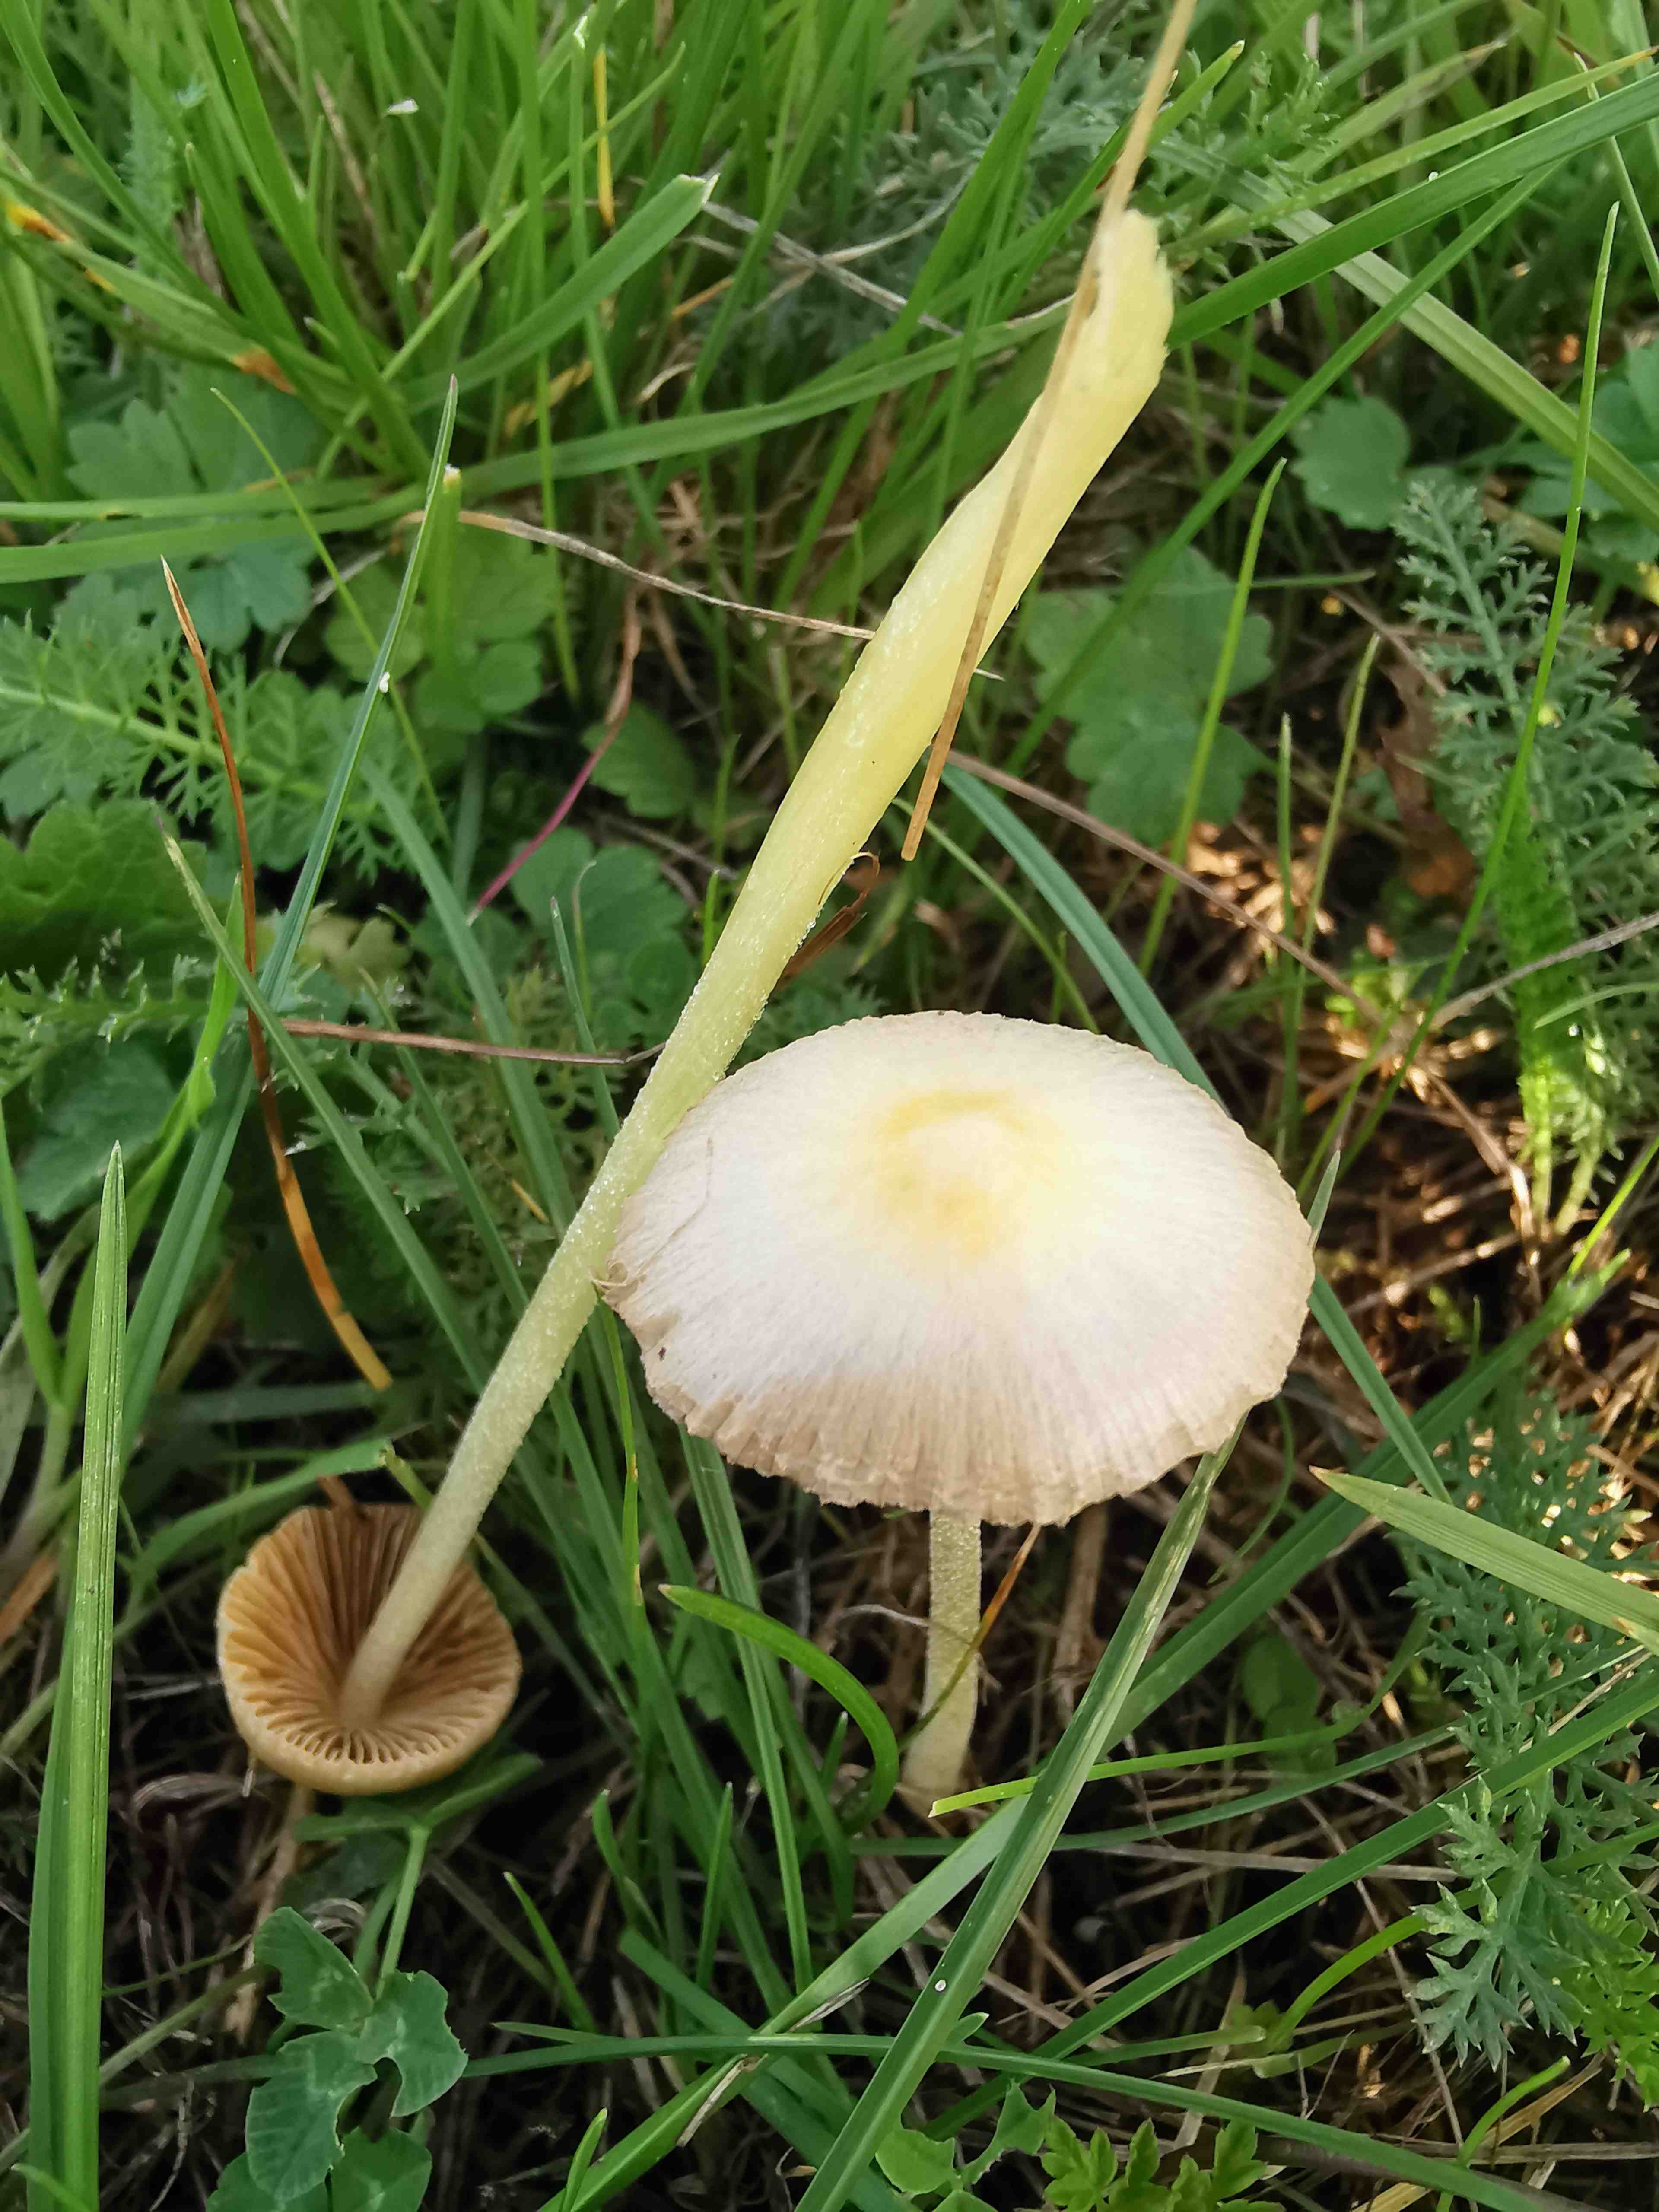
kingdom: Fungi
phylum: Basidiomycota
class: Agaricomycetes
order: Agaricales
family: Bolbitiaceae
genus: Bolbitius
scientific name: Bolbitius titubans
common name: almindelig gulhat
